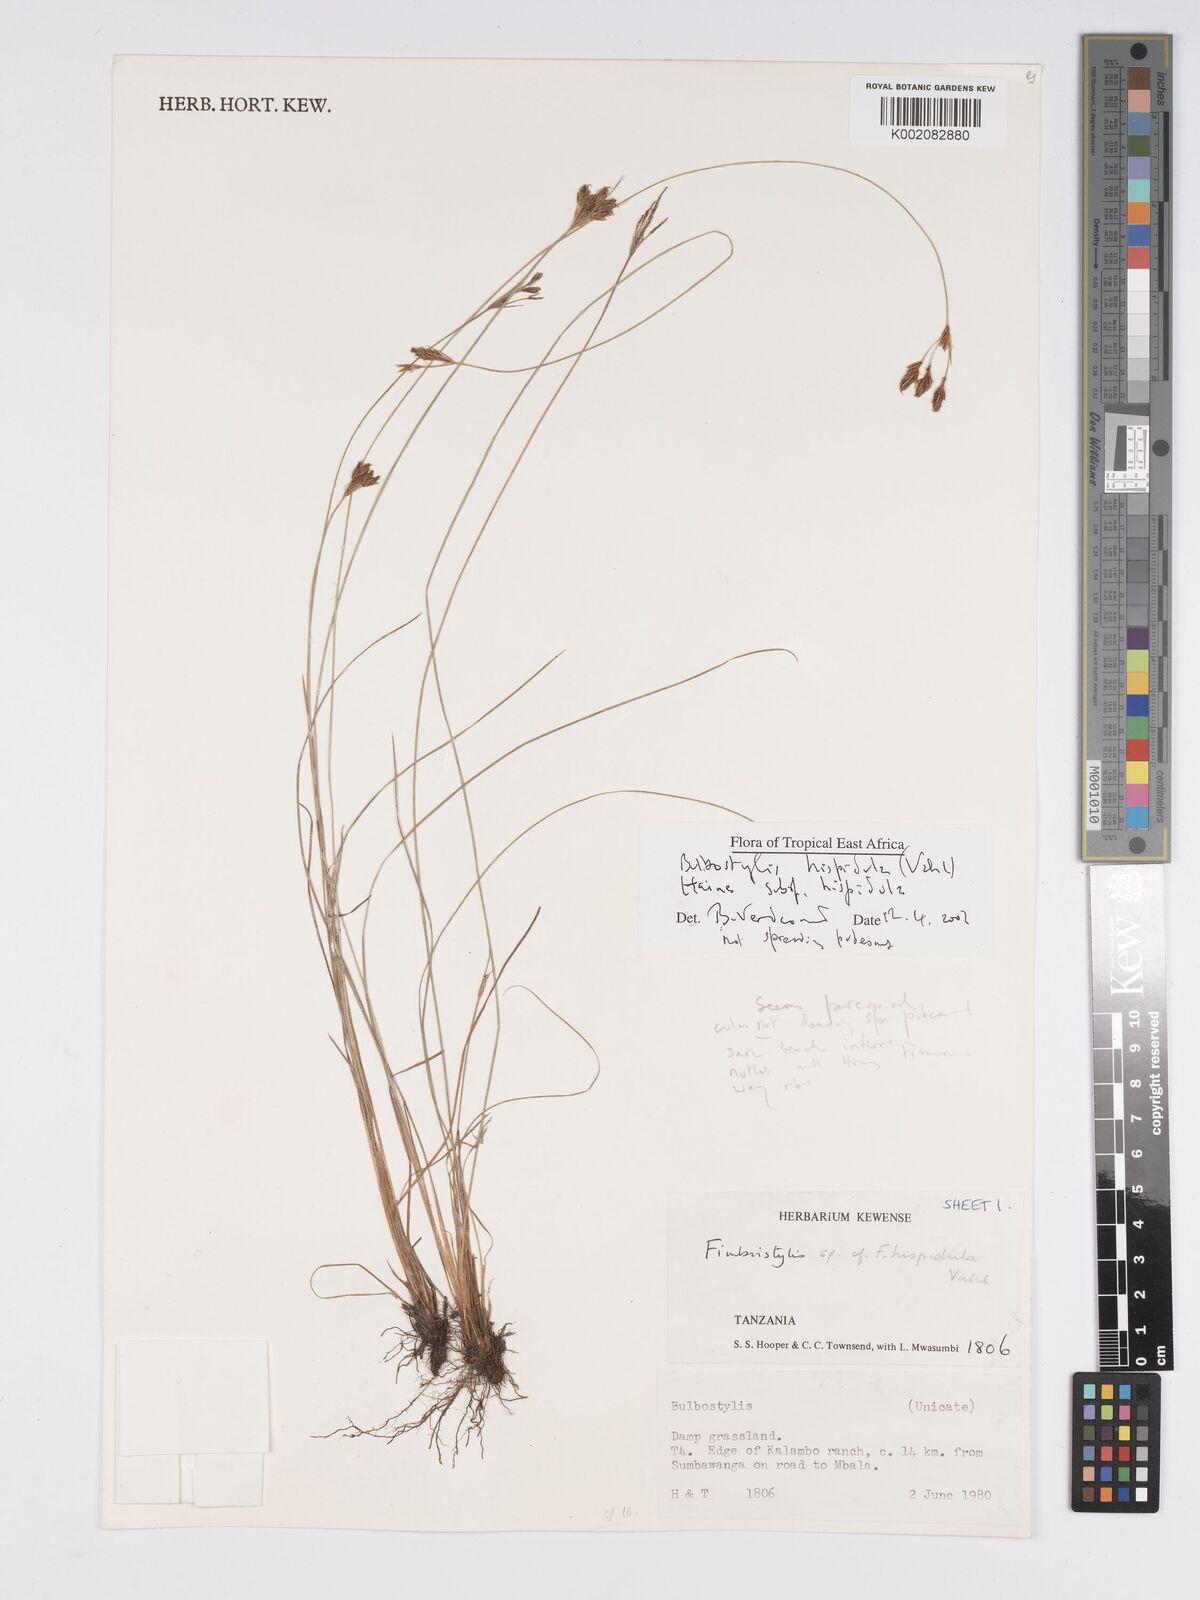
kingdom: Plantae
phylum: Tracheophyta
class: Liliopsida
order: Poales
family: Cyperaceae
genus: Bulbostylis
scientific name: Bulbostylis hispidula
